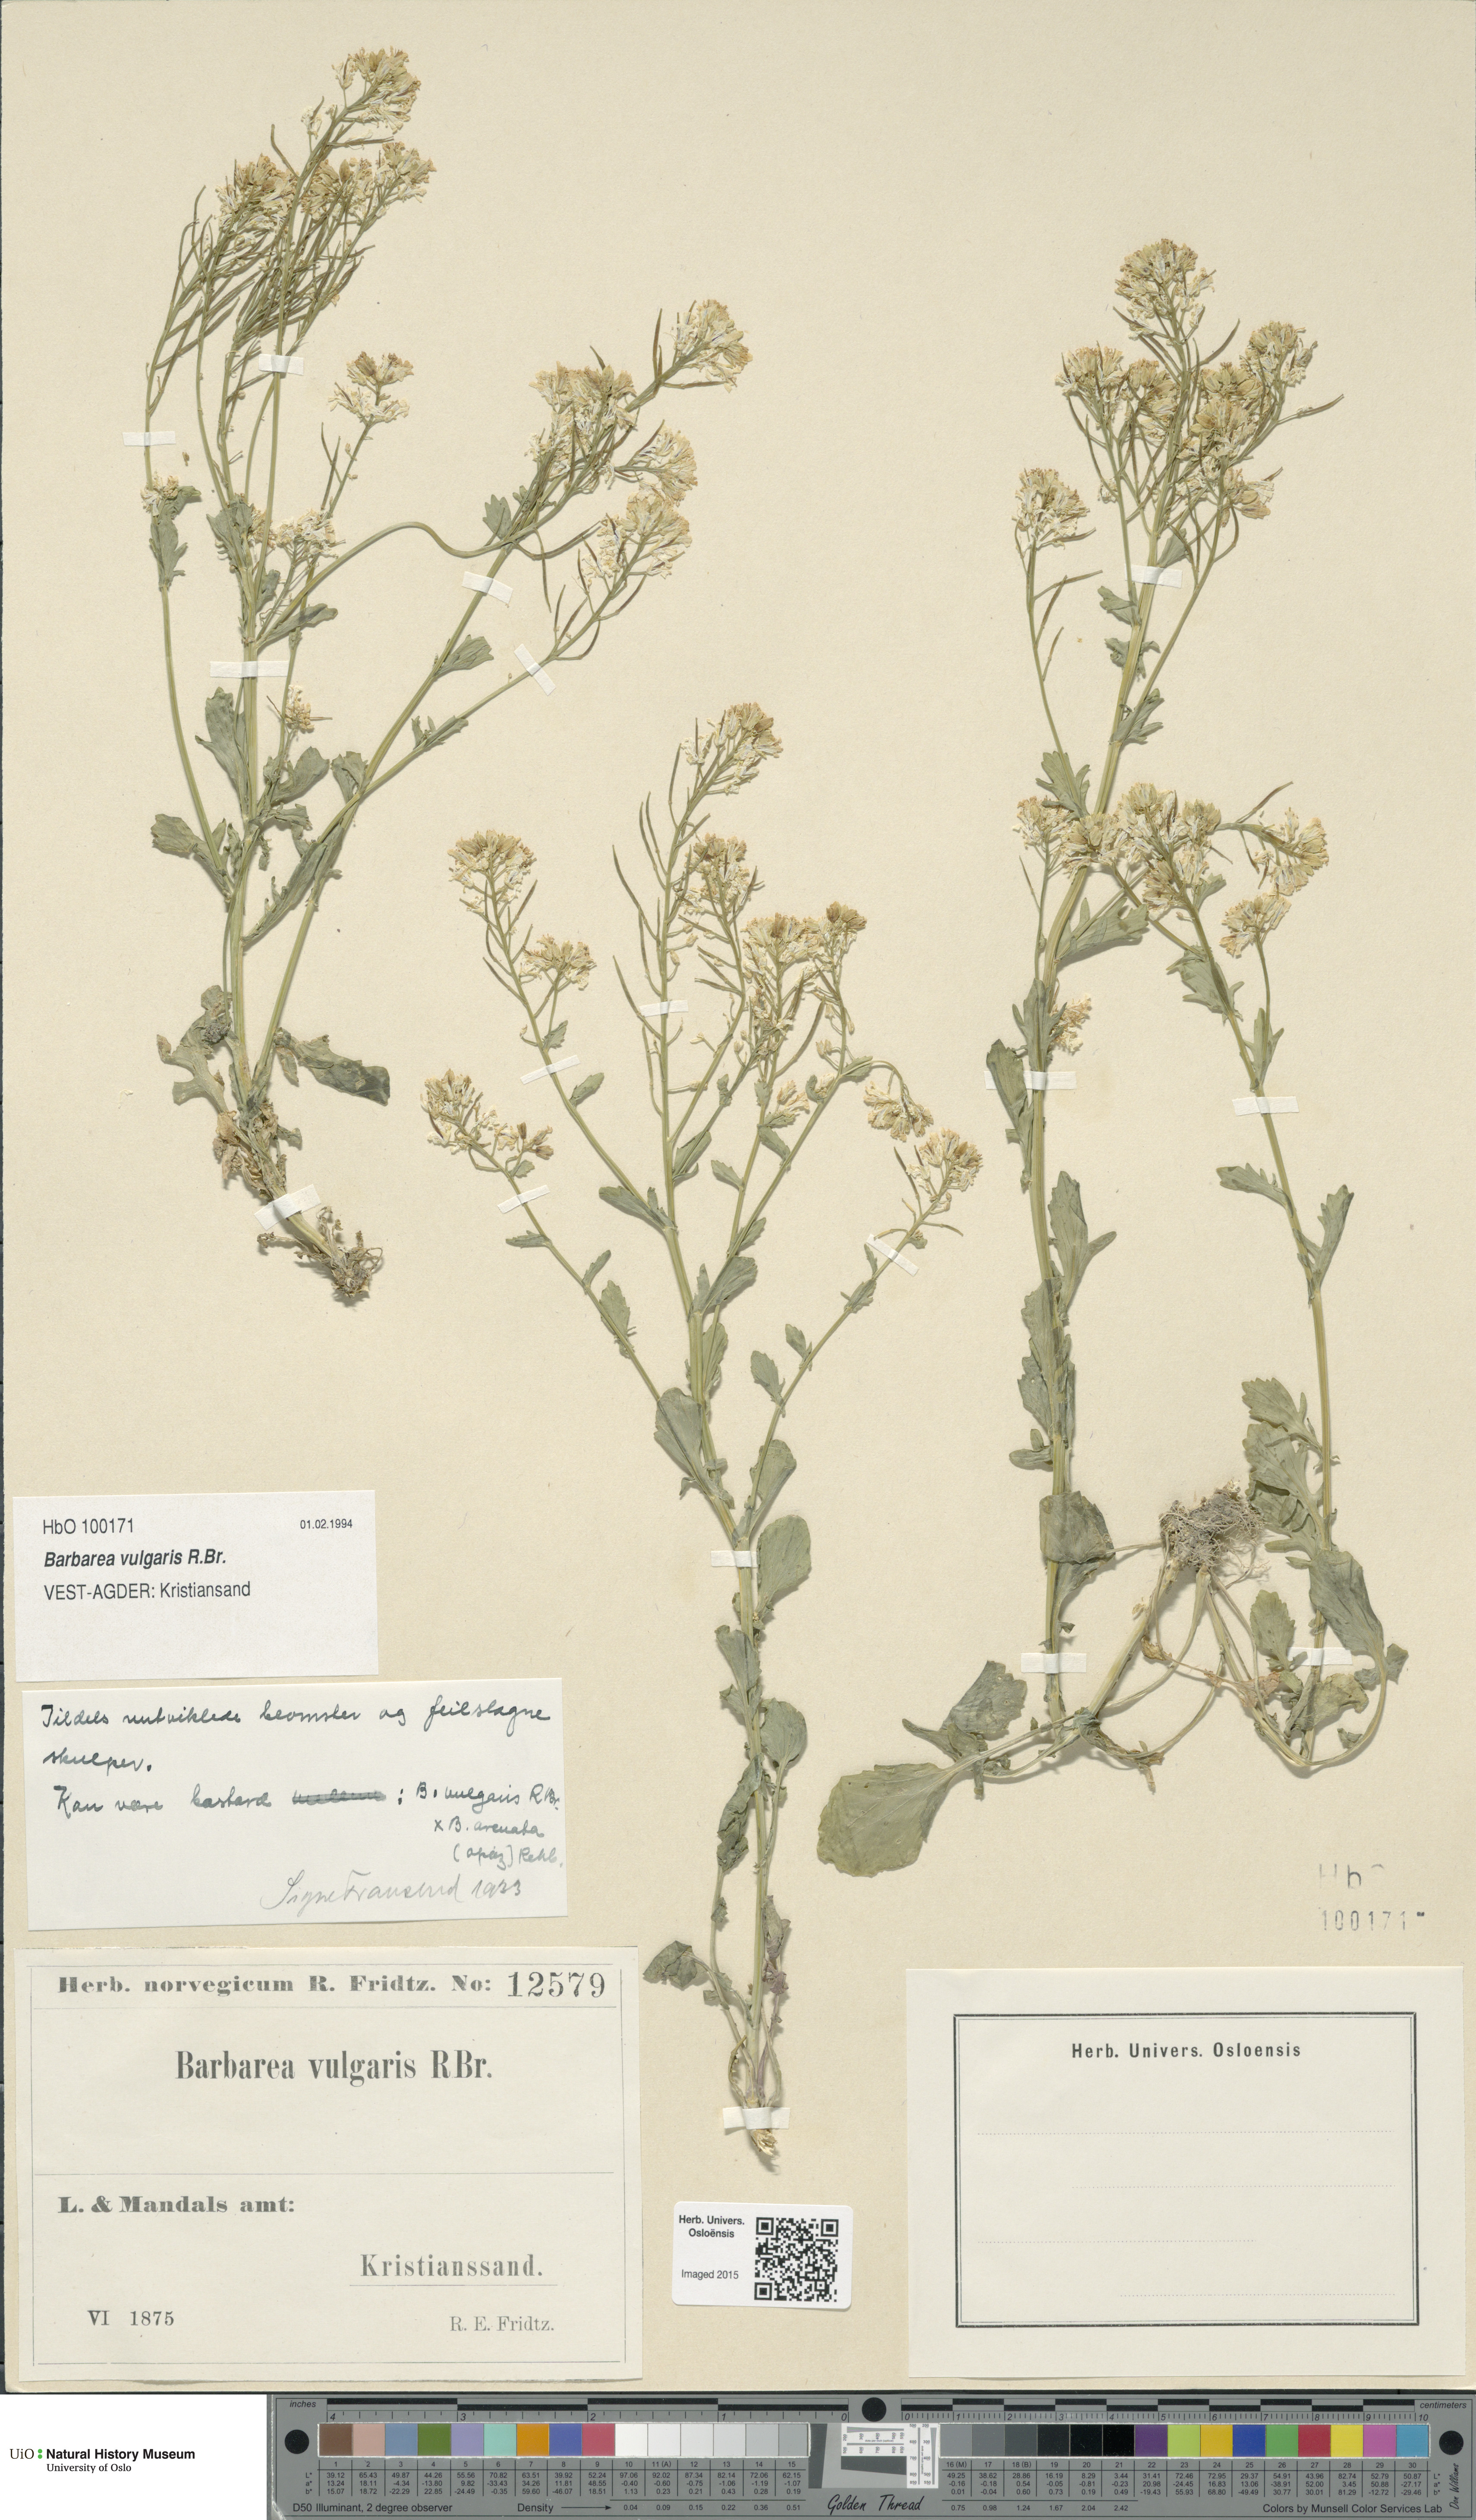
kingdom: Plantae
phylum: Tracheophyta
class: Magnoliopsida
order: Brassicales
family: Brassicaceae
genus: Barbarea
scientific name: Barbarea vulgaris
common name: Cressy-greens
